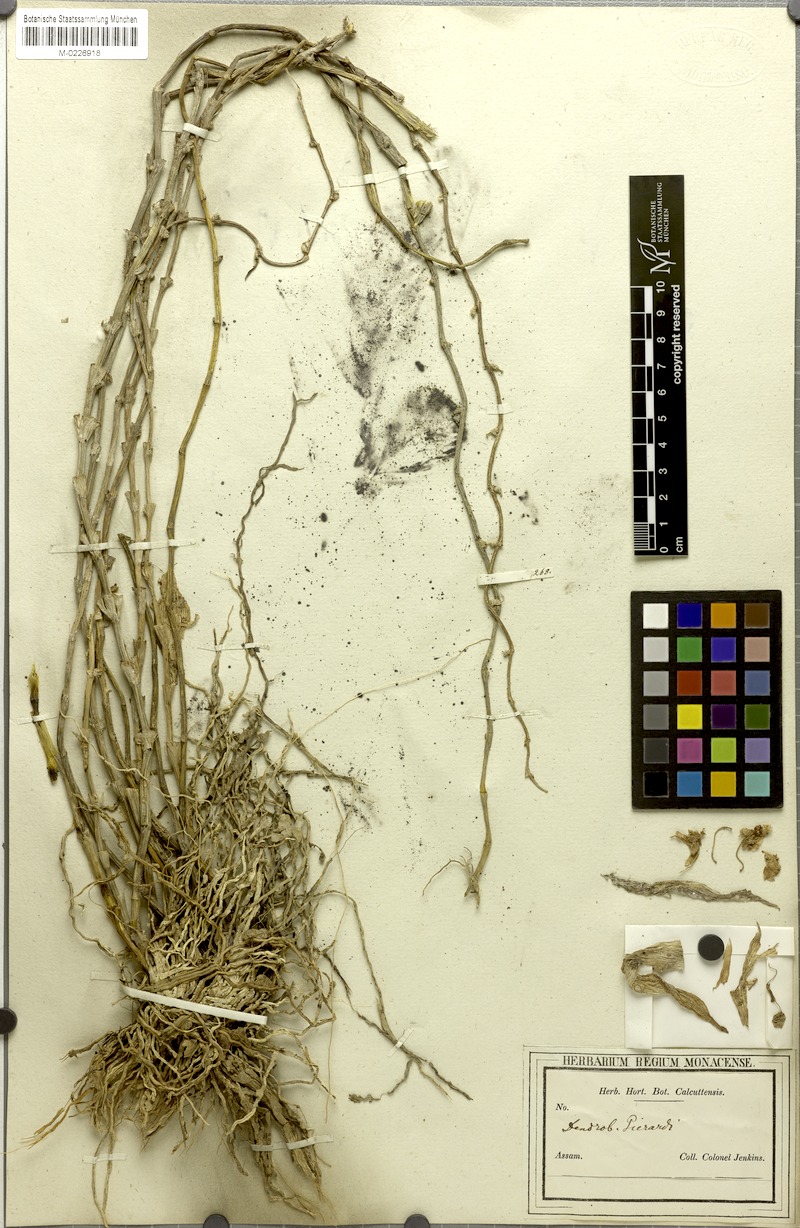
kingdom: Plantae
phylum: Tracheophyta
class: Liliopsida
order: Asparagales
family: Orchidaceae
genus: Dendrobium
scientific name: Dendrobium aphyllum
